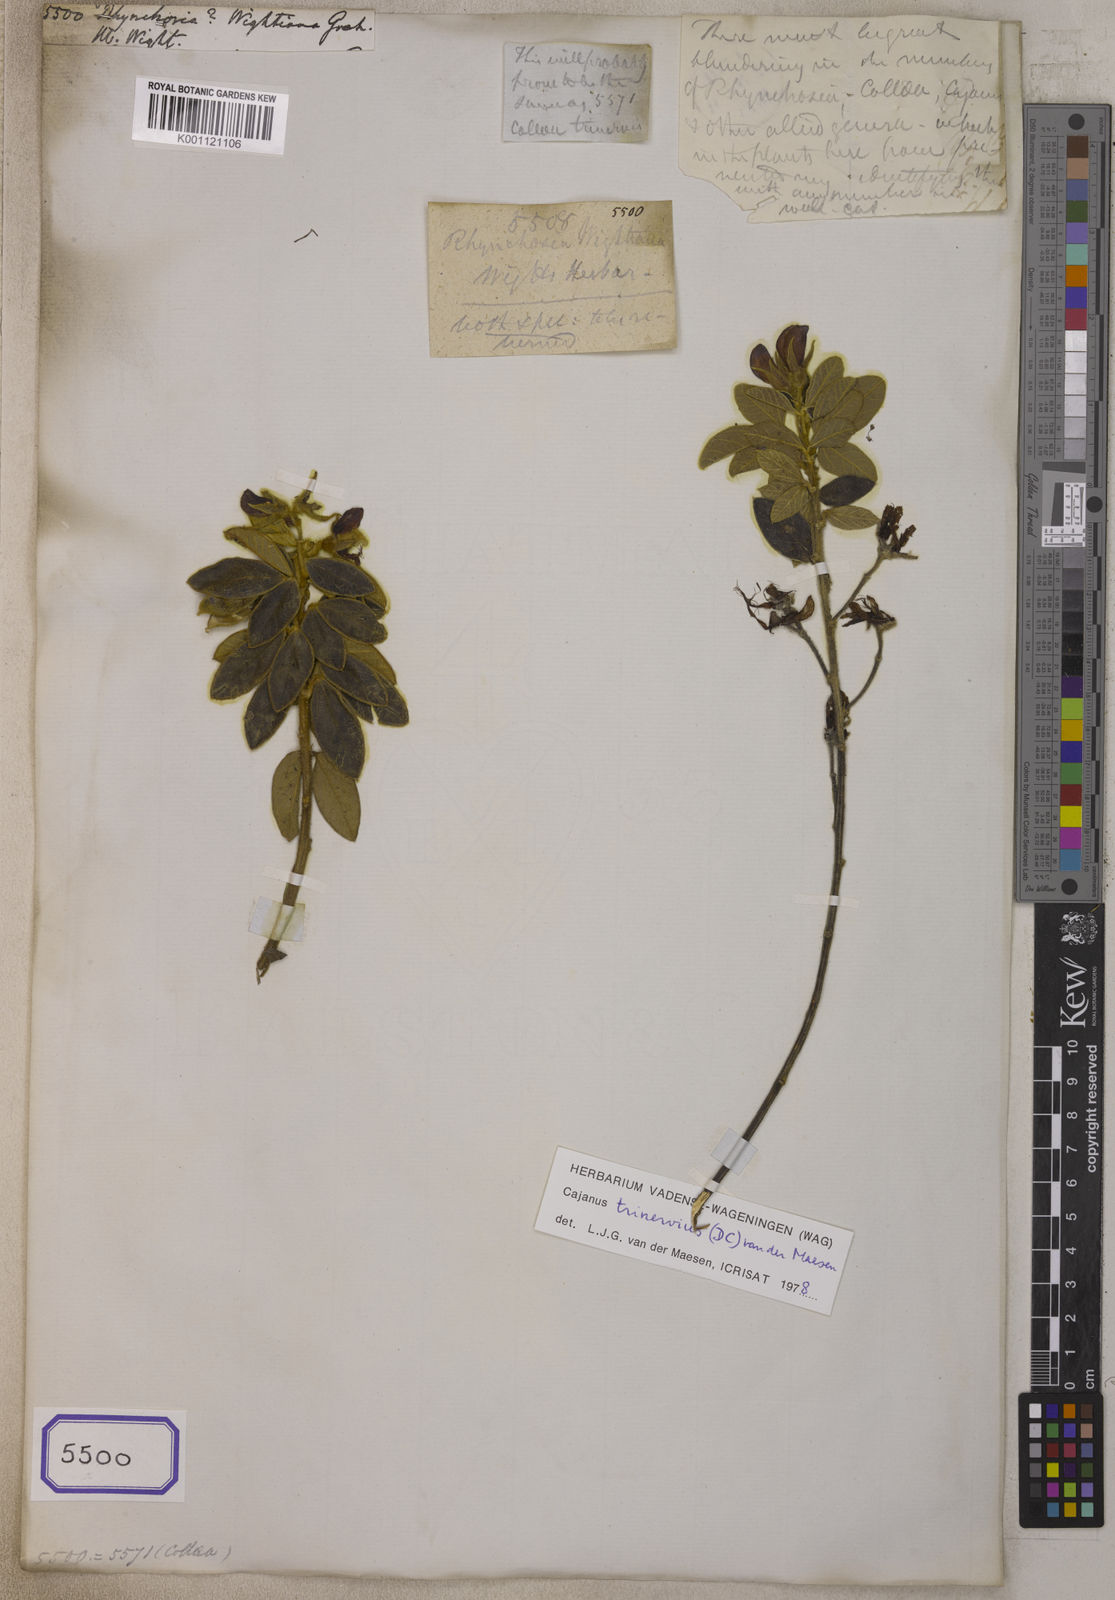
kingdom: Plantae
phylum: Tracheophyta
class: Magnoliopsida
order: Fabales
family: Fabaceae
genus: Cajanus
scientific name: Cajanus trinervius
